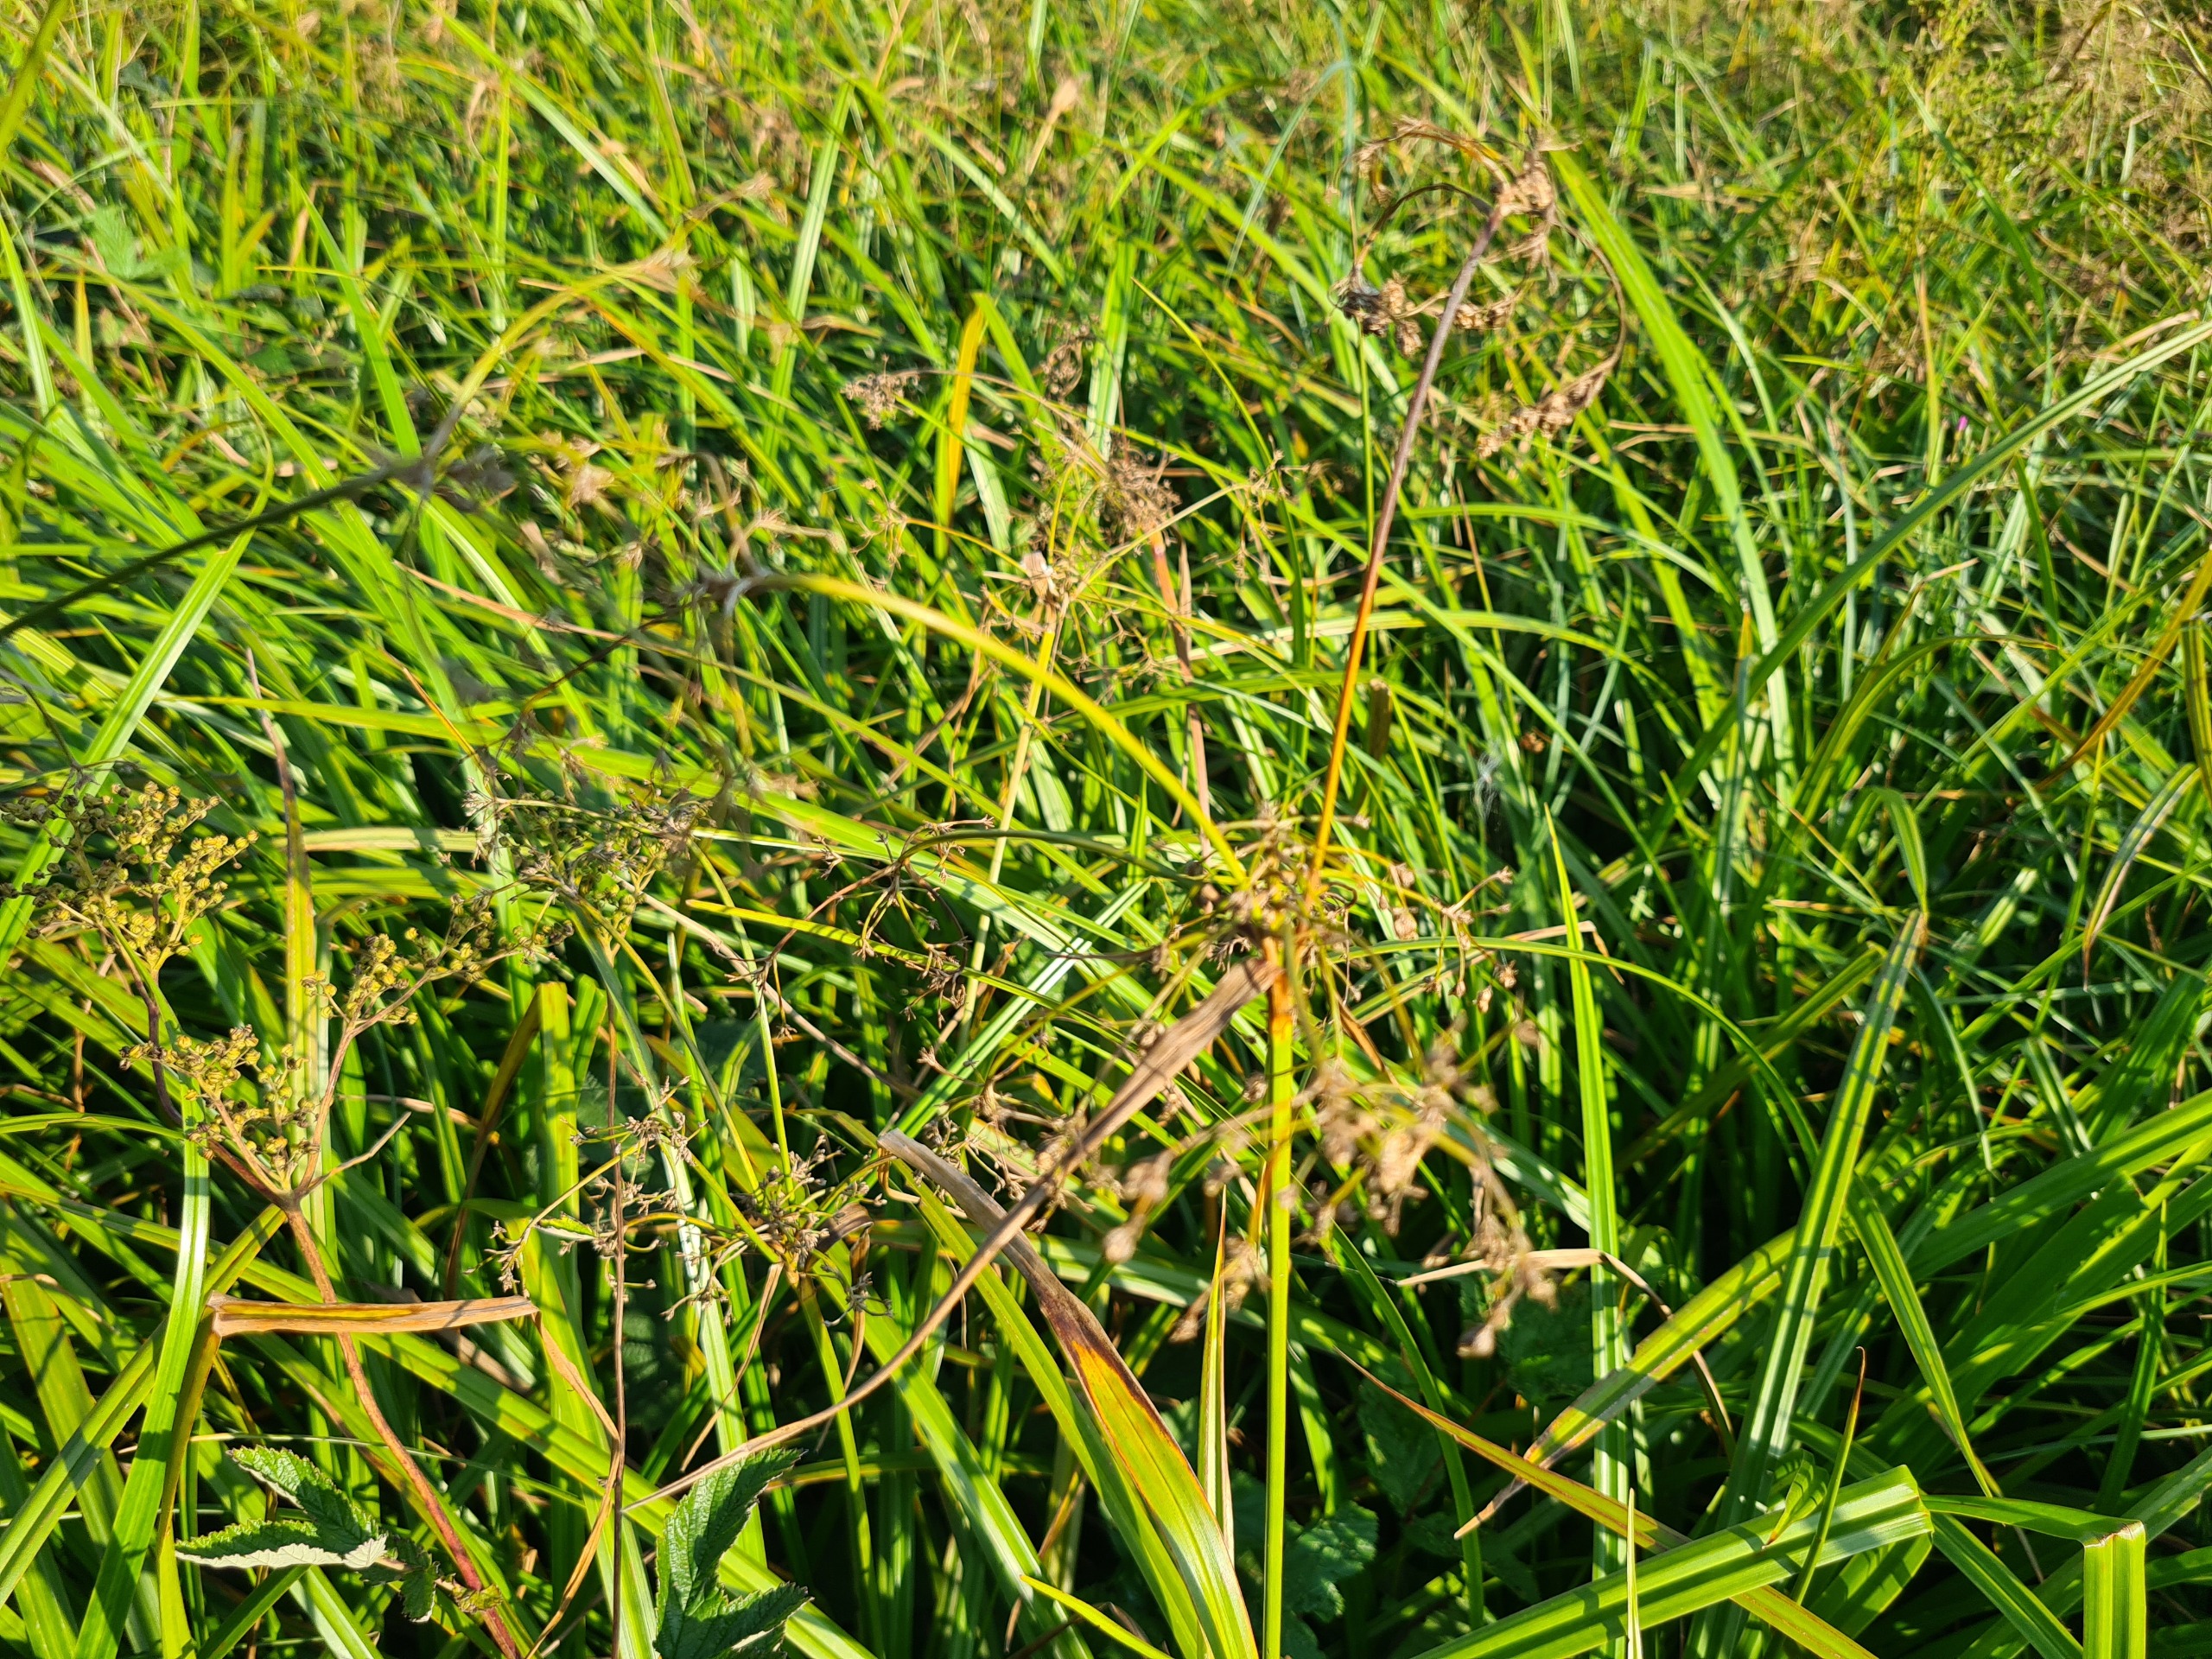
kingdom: Plantae
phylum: Tracheophyta
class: Liliopsida
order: Poales
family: Cyperaceae
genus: Scirpus
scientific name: Scirpus sylvaticus
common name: Skov-kogleaks
